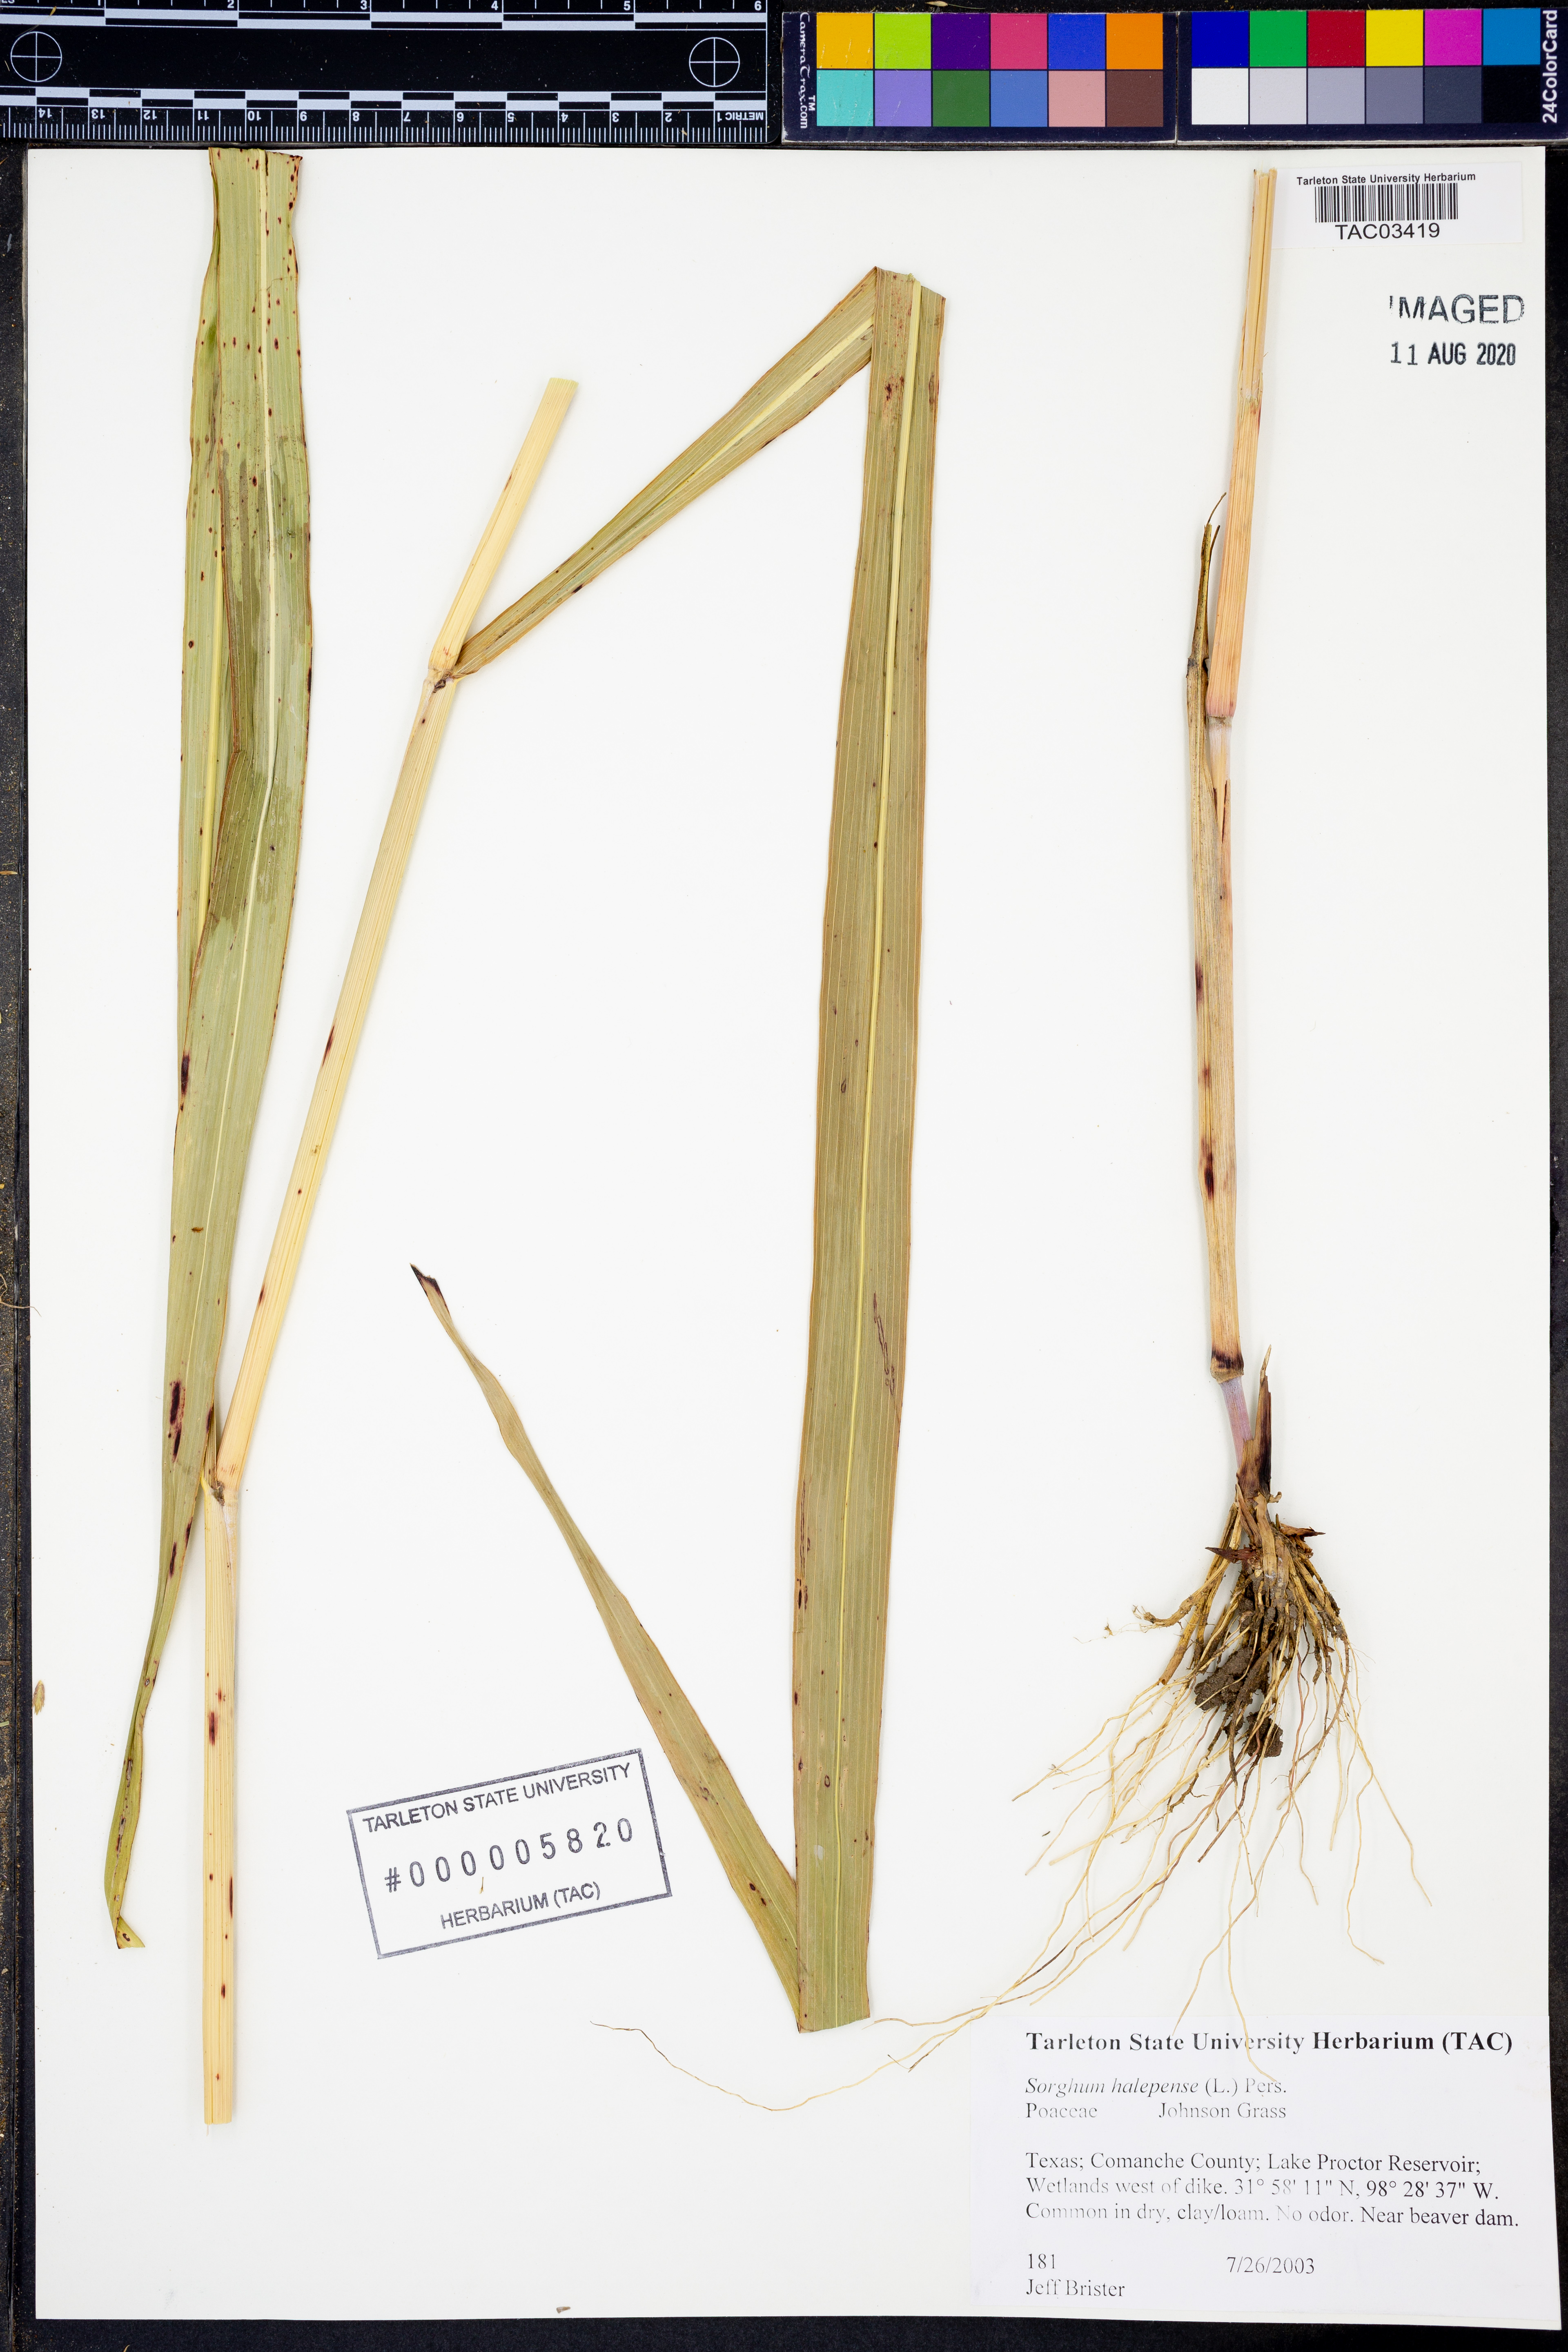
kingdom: Plantae
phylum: Tracheophyta
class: Liliopsida
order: Poales
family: Poaceae
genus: Sorghum
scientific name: Sorghum halepense
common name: Johnson-grass
